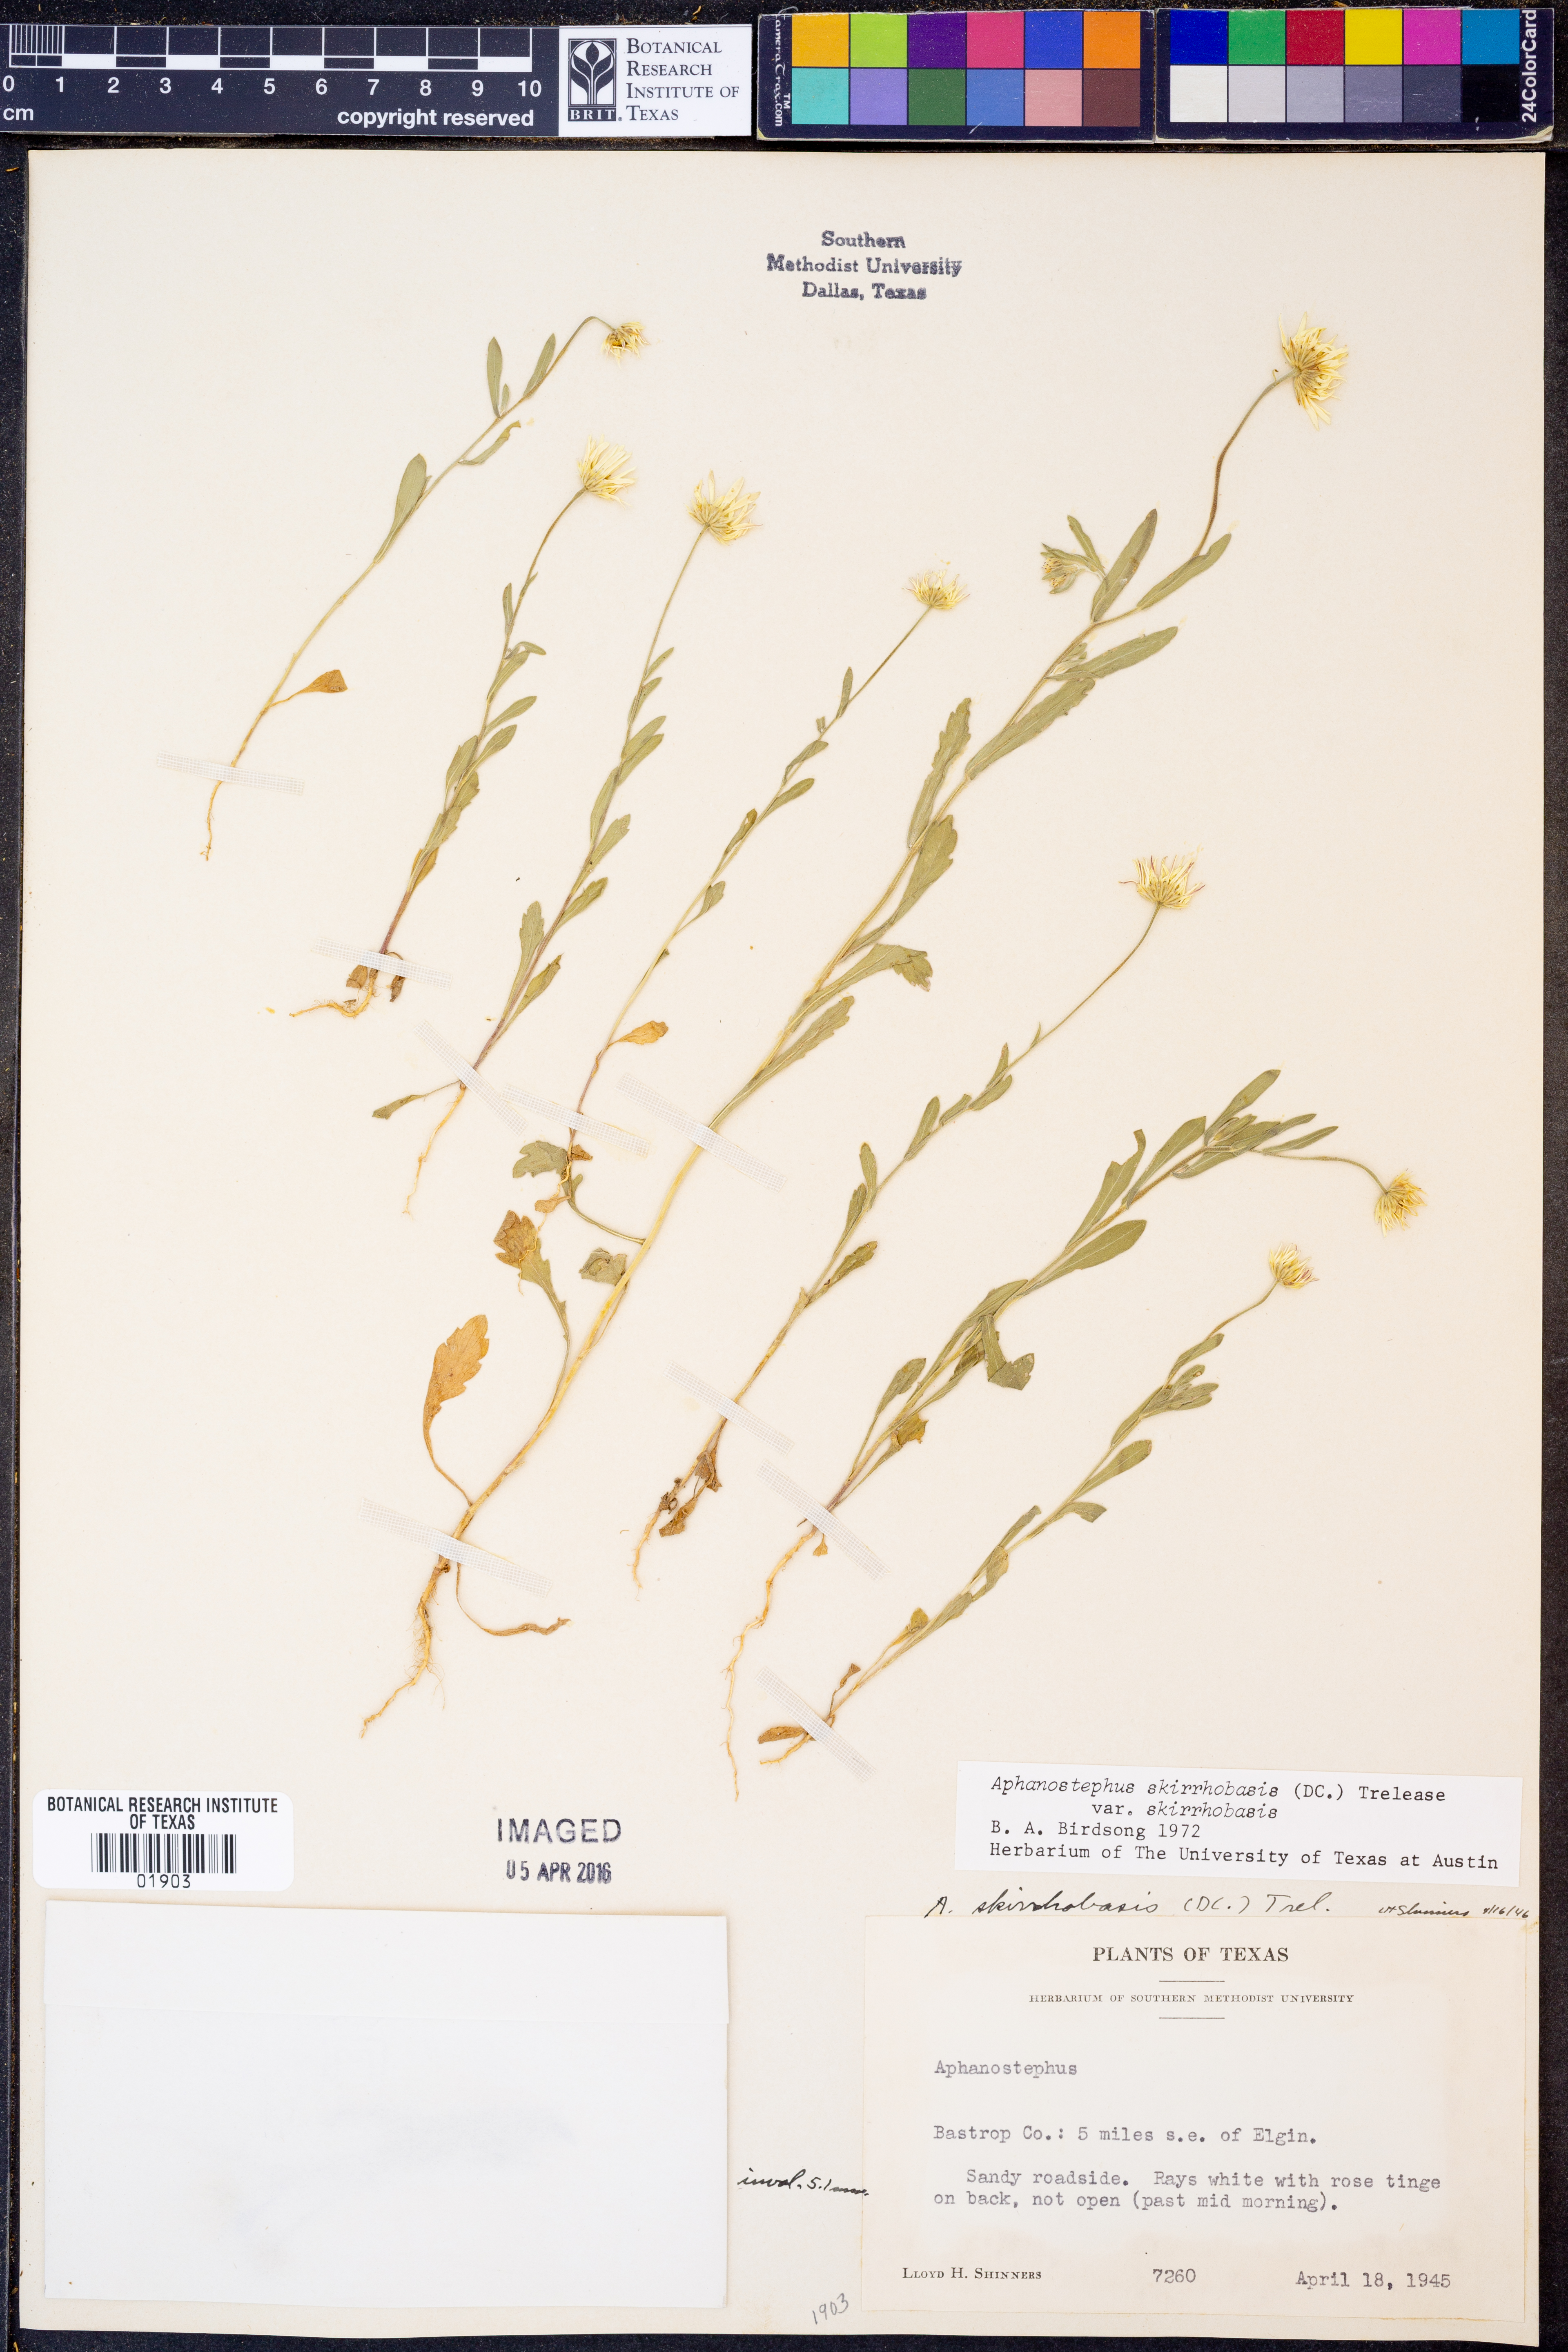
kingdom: Plantae
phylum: Tracheophyta
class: Magnoliopsida
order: Asterales
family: Asteraceae
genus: Aphanostephus
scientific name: Aphanostephus skirrhobasis
